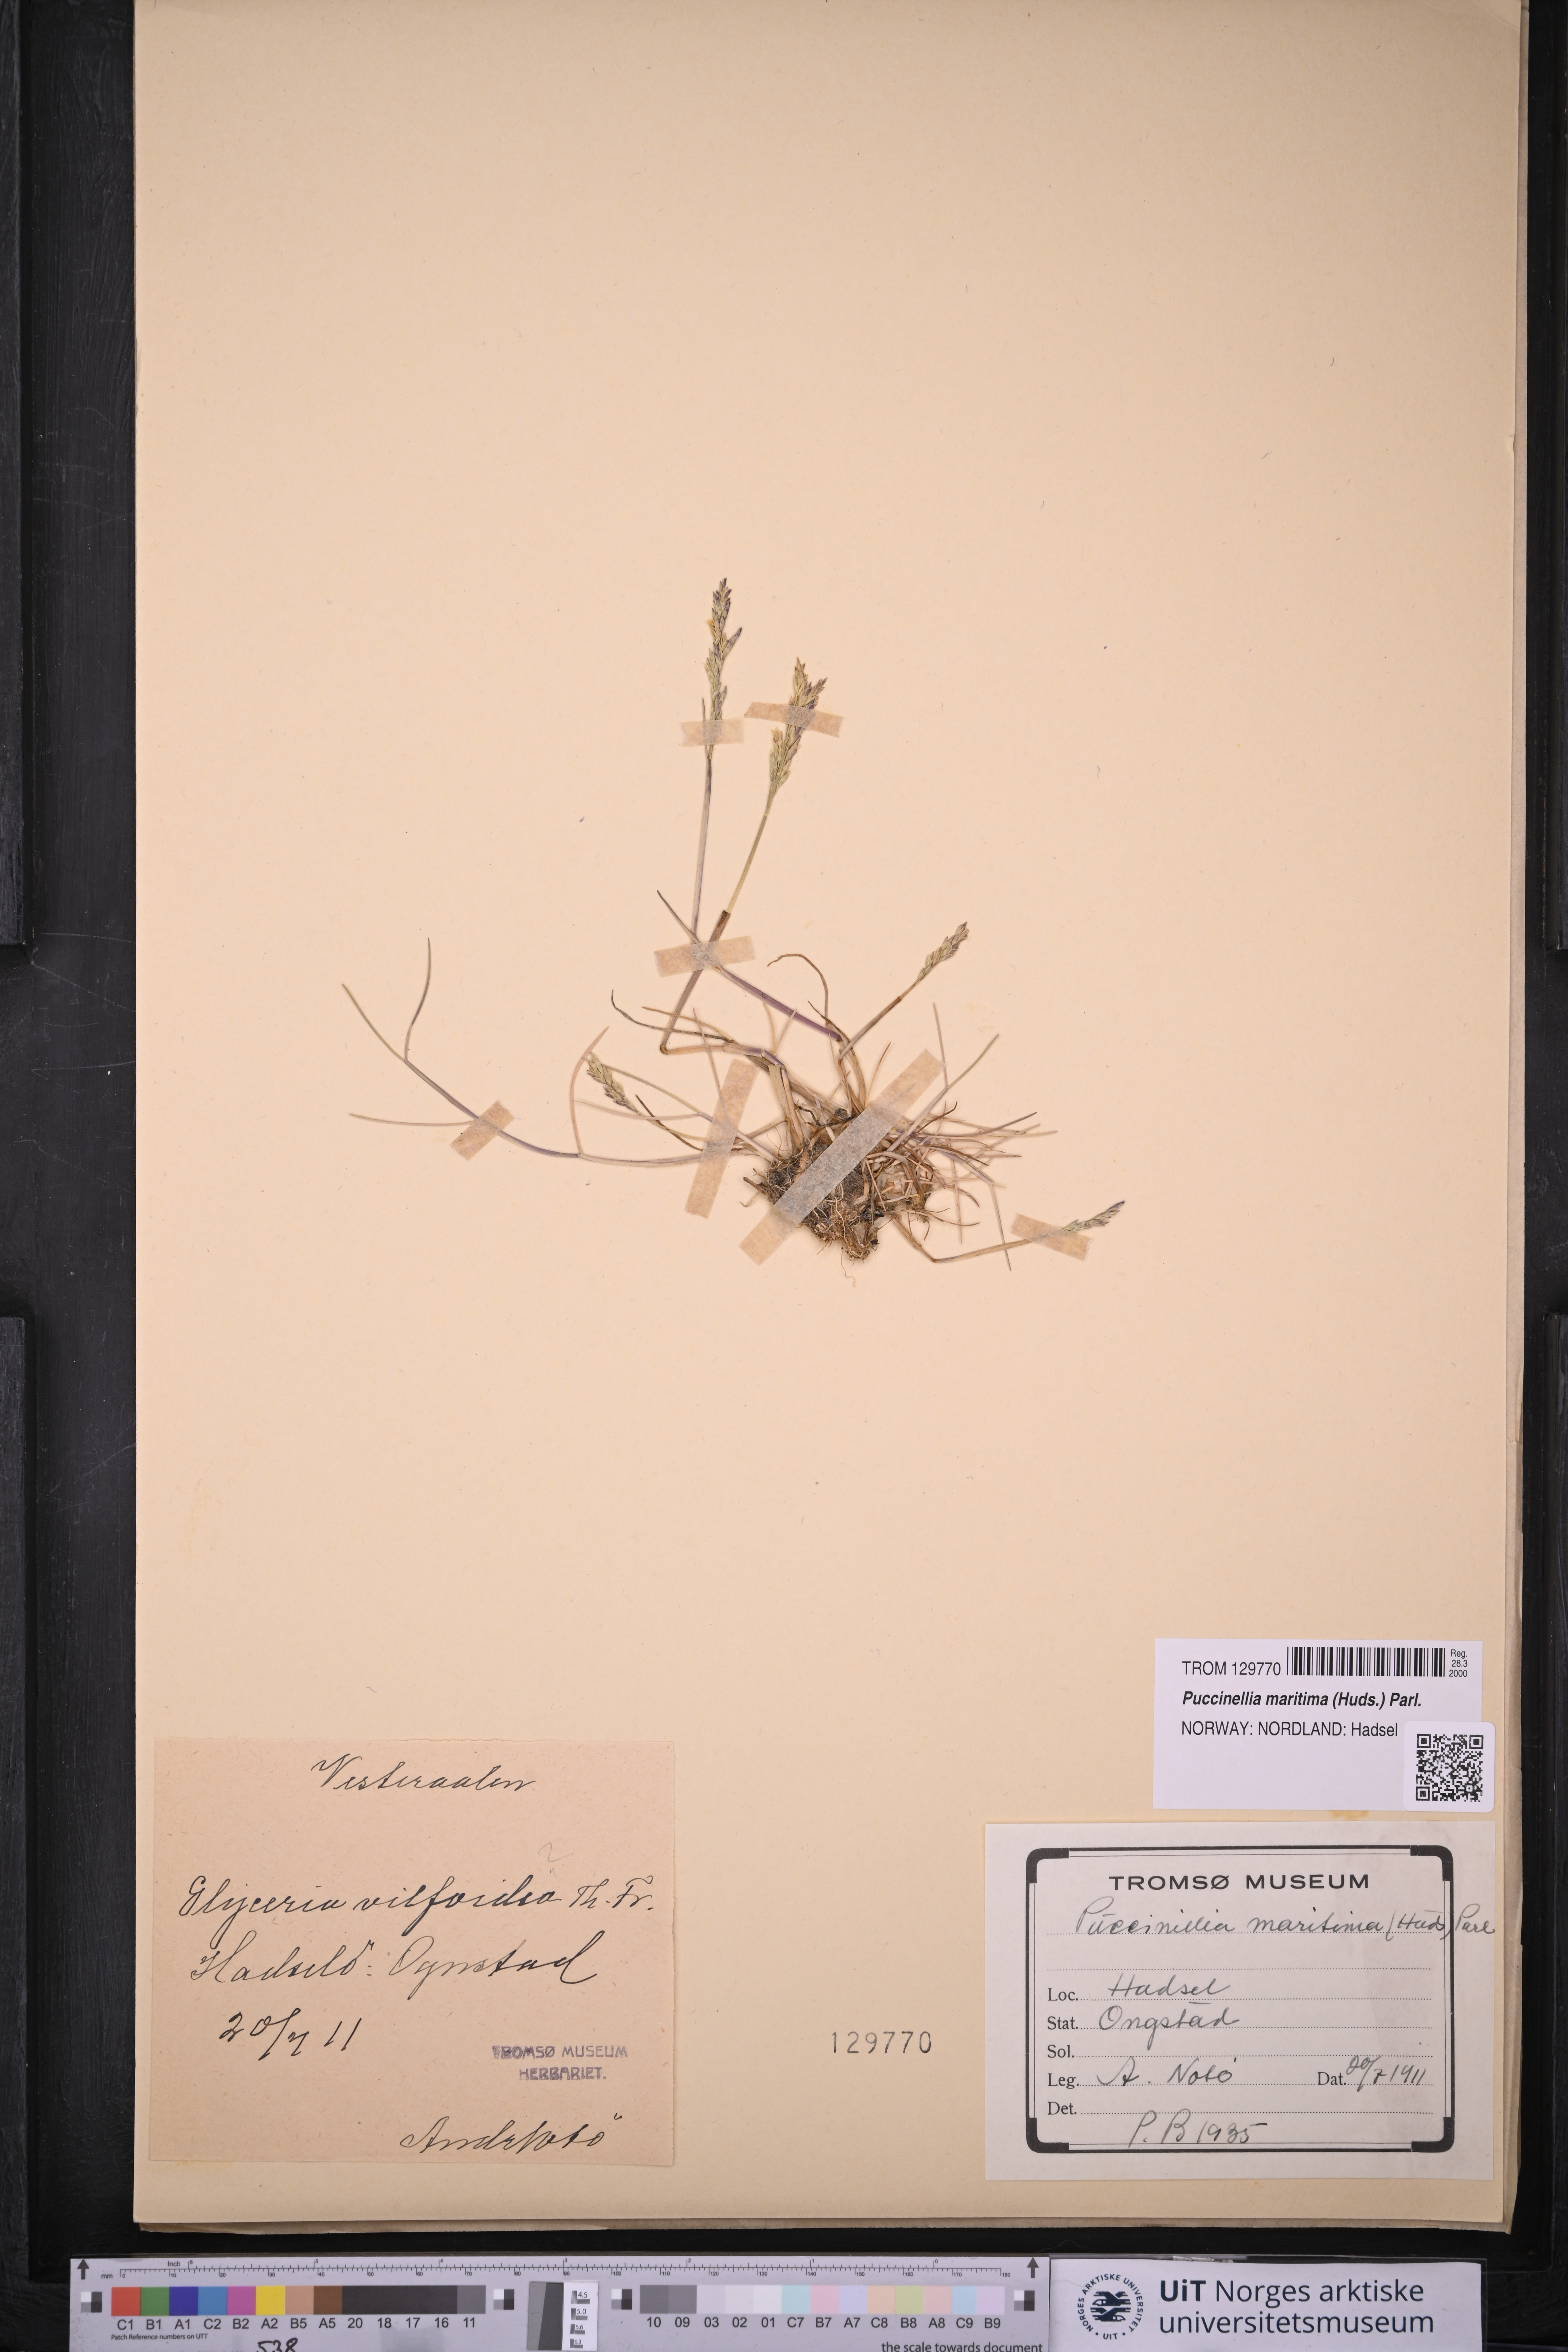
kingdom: Plantae
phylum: Tracheophyta
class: Liliopsida
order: Poales
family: Poaceae
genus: Puccinellia
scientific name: Puccinellia maritima
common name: Common saltmarsh grass
